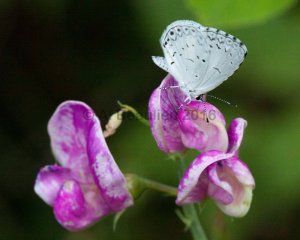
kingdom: Animalia
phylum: Arthropoda
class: Insecta
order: Lepidoptera
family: Lycaenidae
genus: Cyaniris
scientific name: Cyaniris neglecta
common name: Summer Azure
